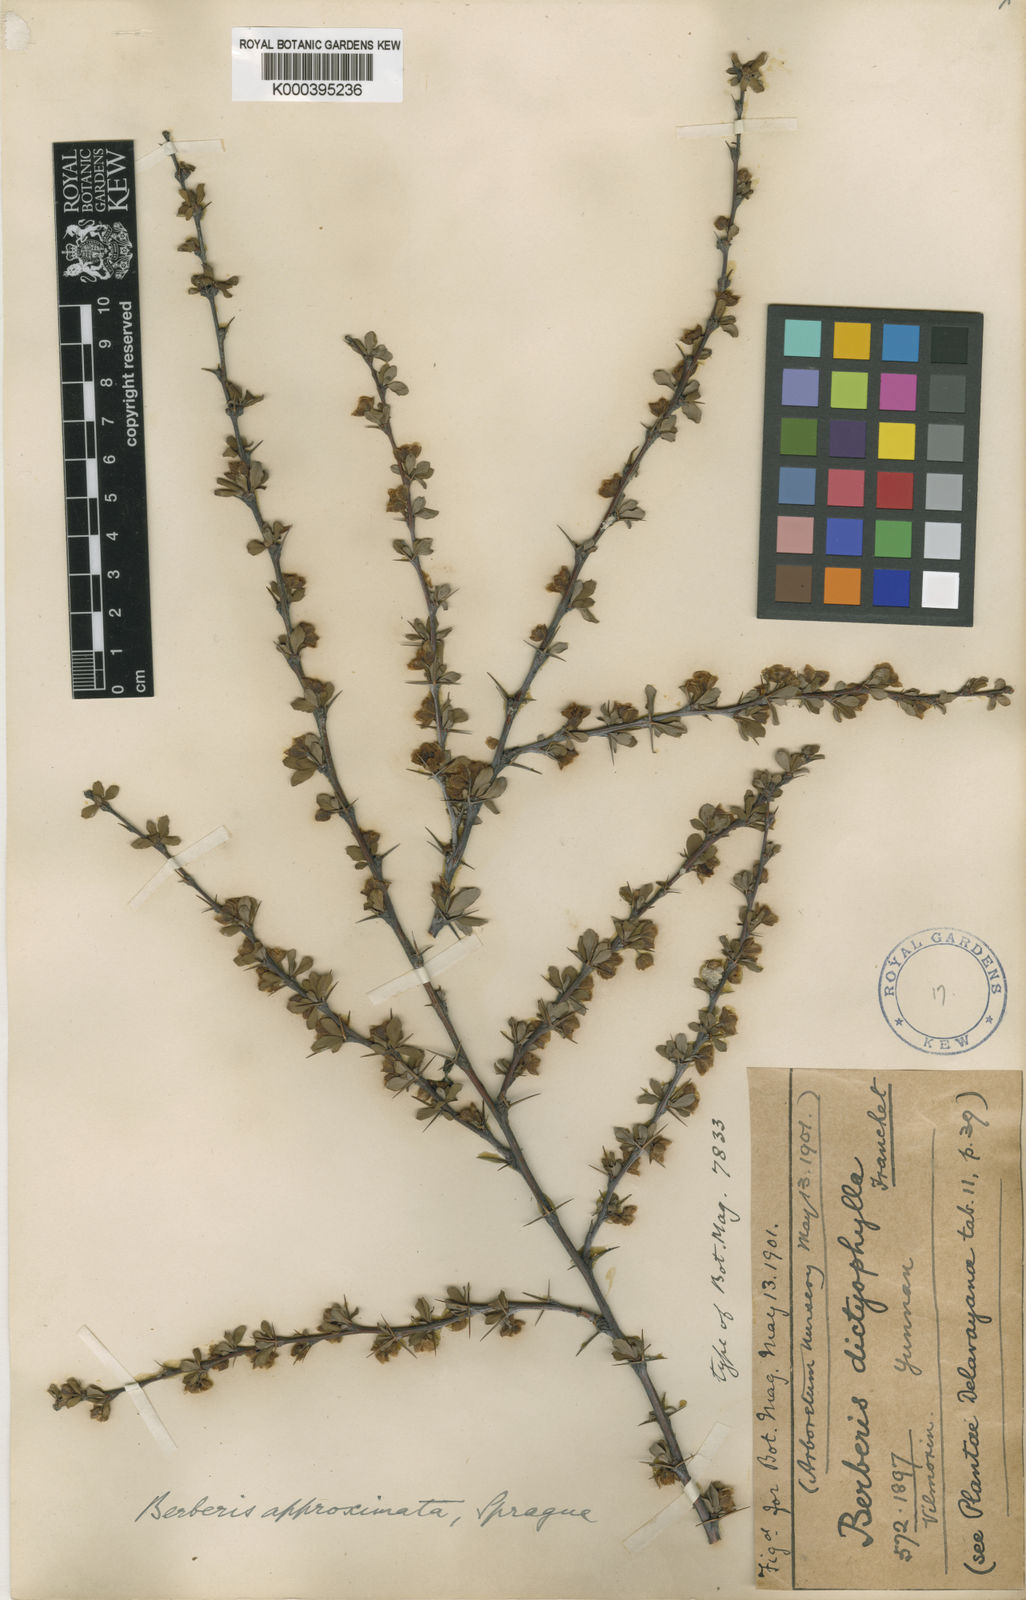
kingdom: Plantae
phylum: Tracheophyta
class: Magnoliopsida
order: Ranunculales
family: Berberidaceae
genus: Berberis
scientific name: Berberis dictyophylla
